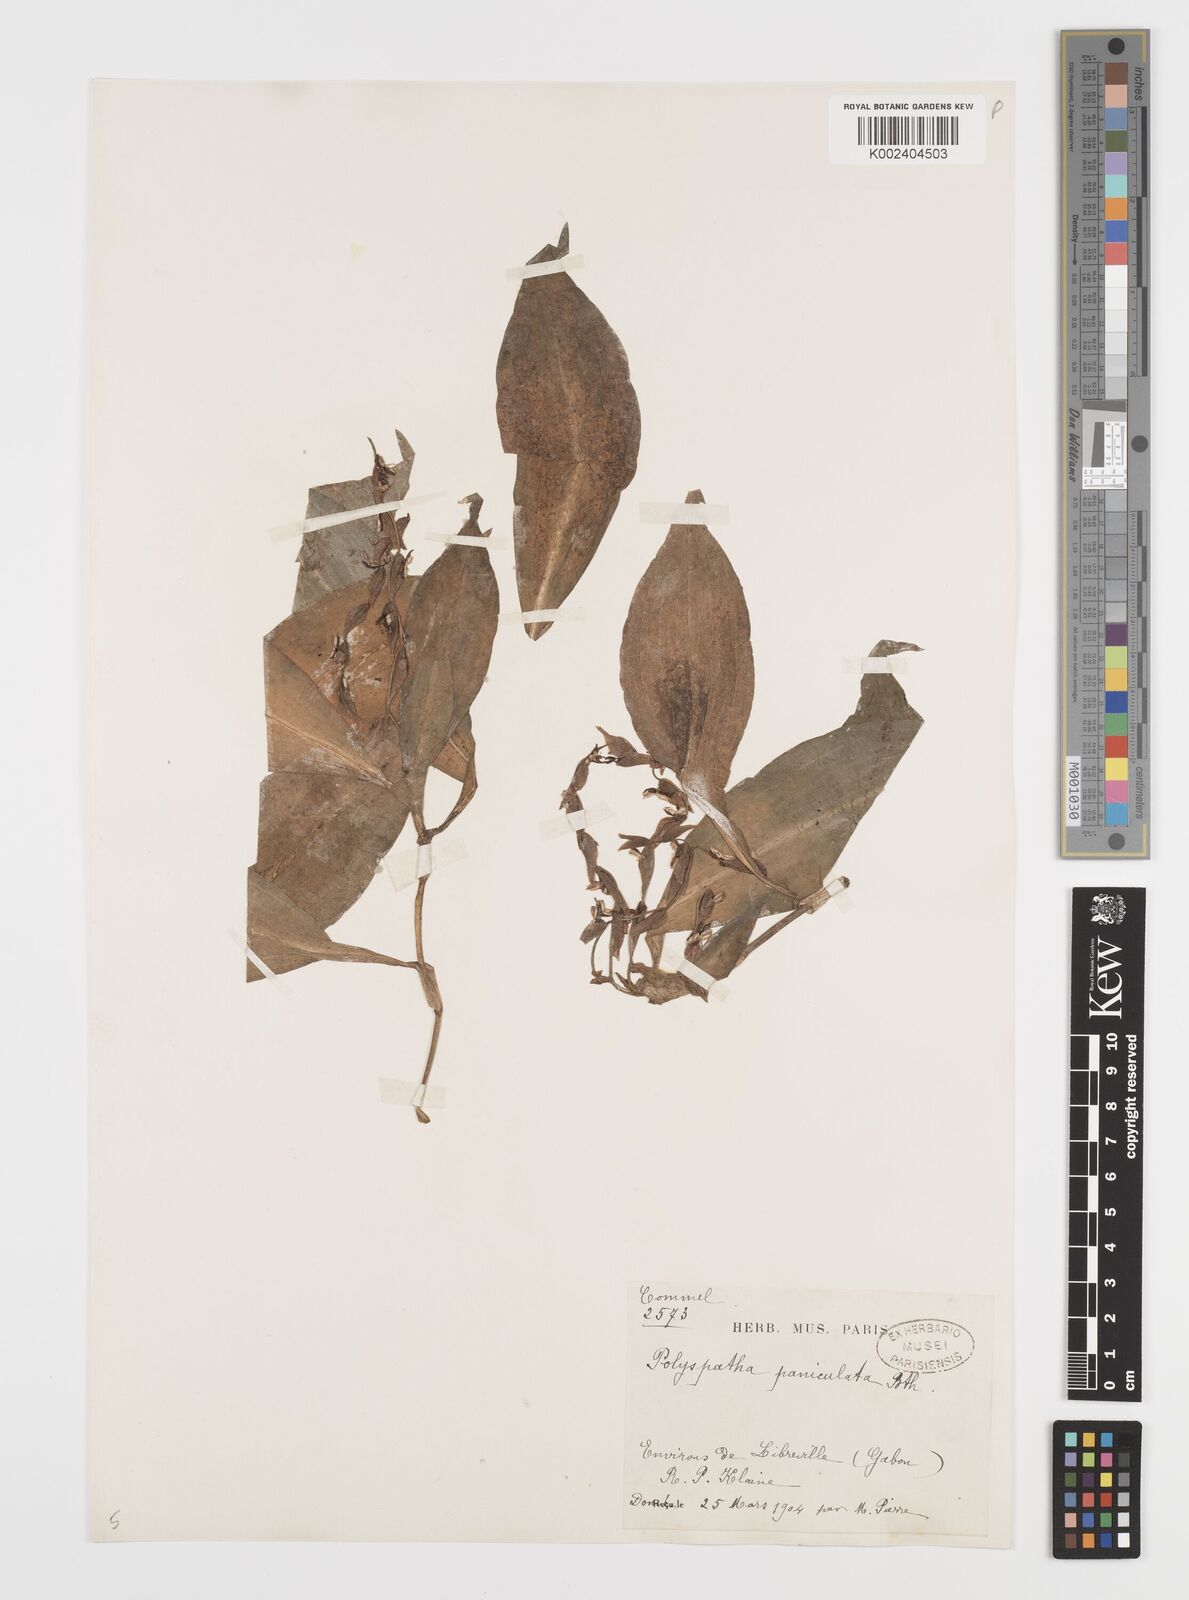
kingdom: Plantae
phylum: Tracheophyta
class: Liliopsida
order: Commelinales
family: Commelinaceae
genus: Polyspatha
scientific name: Polyspatha paniculata
